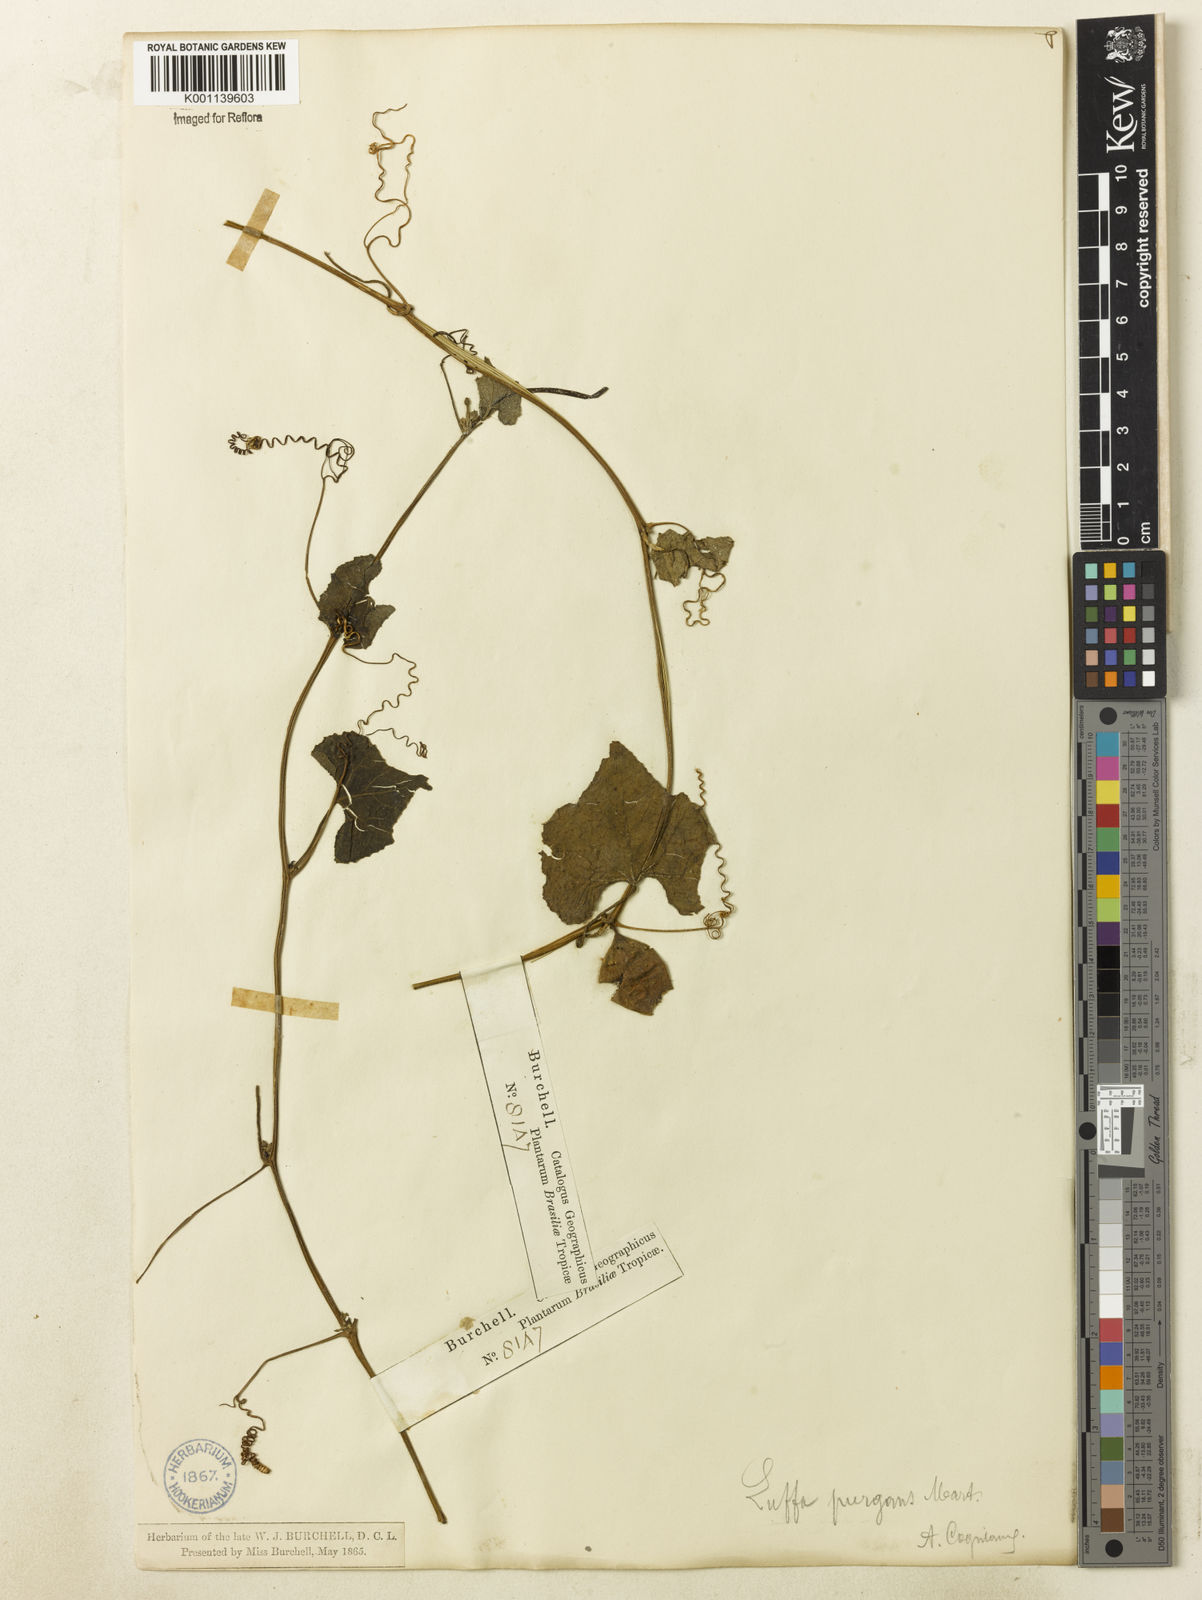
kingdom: Plantae
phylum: Tracheophyta
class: Magnoliopsida
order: Cucurbitales
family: Cucurbitaceae
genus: Luffa
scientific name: Luffa operculata
